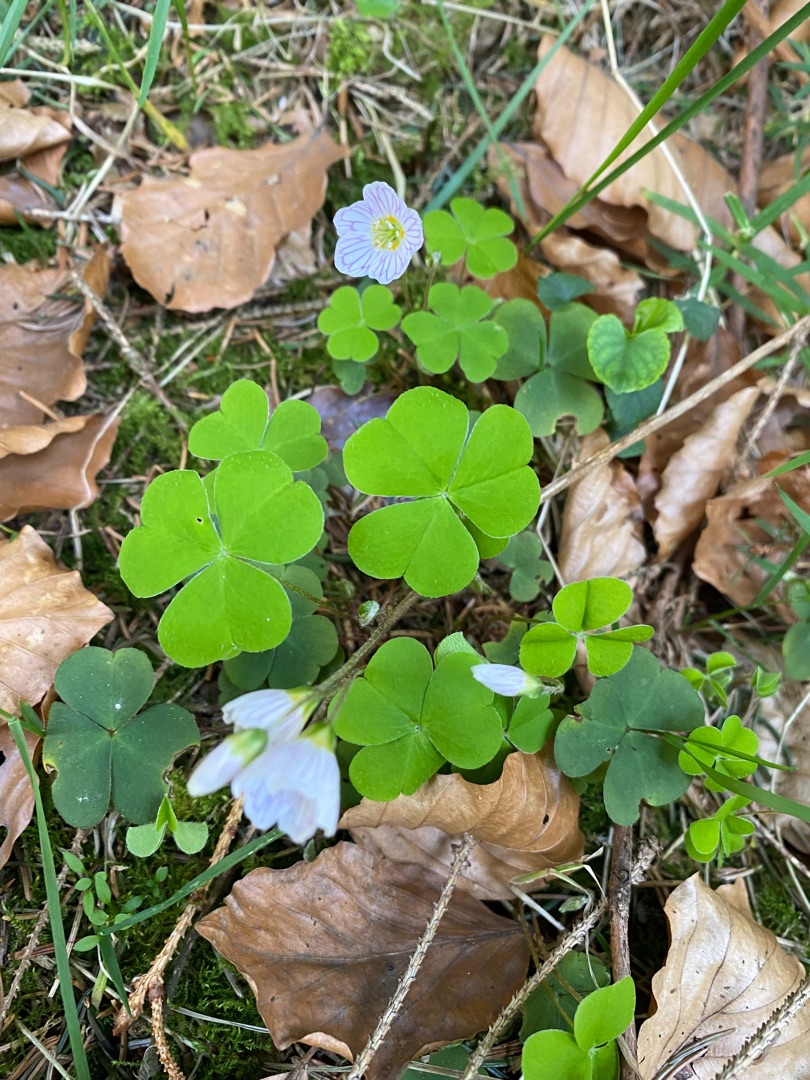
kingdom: Plantae
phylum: Tracheophyta
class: Magnoliopsida
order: Oxalidales
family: Oxalidaceae
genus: Oxalis
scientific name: Oxalis acetosella
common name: Skovsyre
